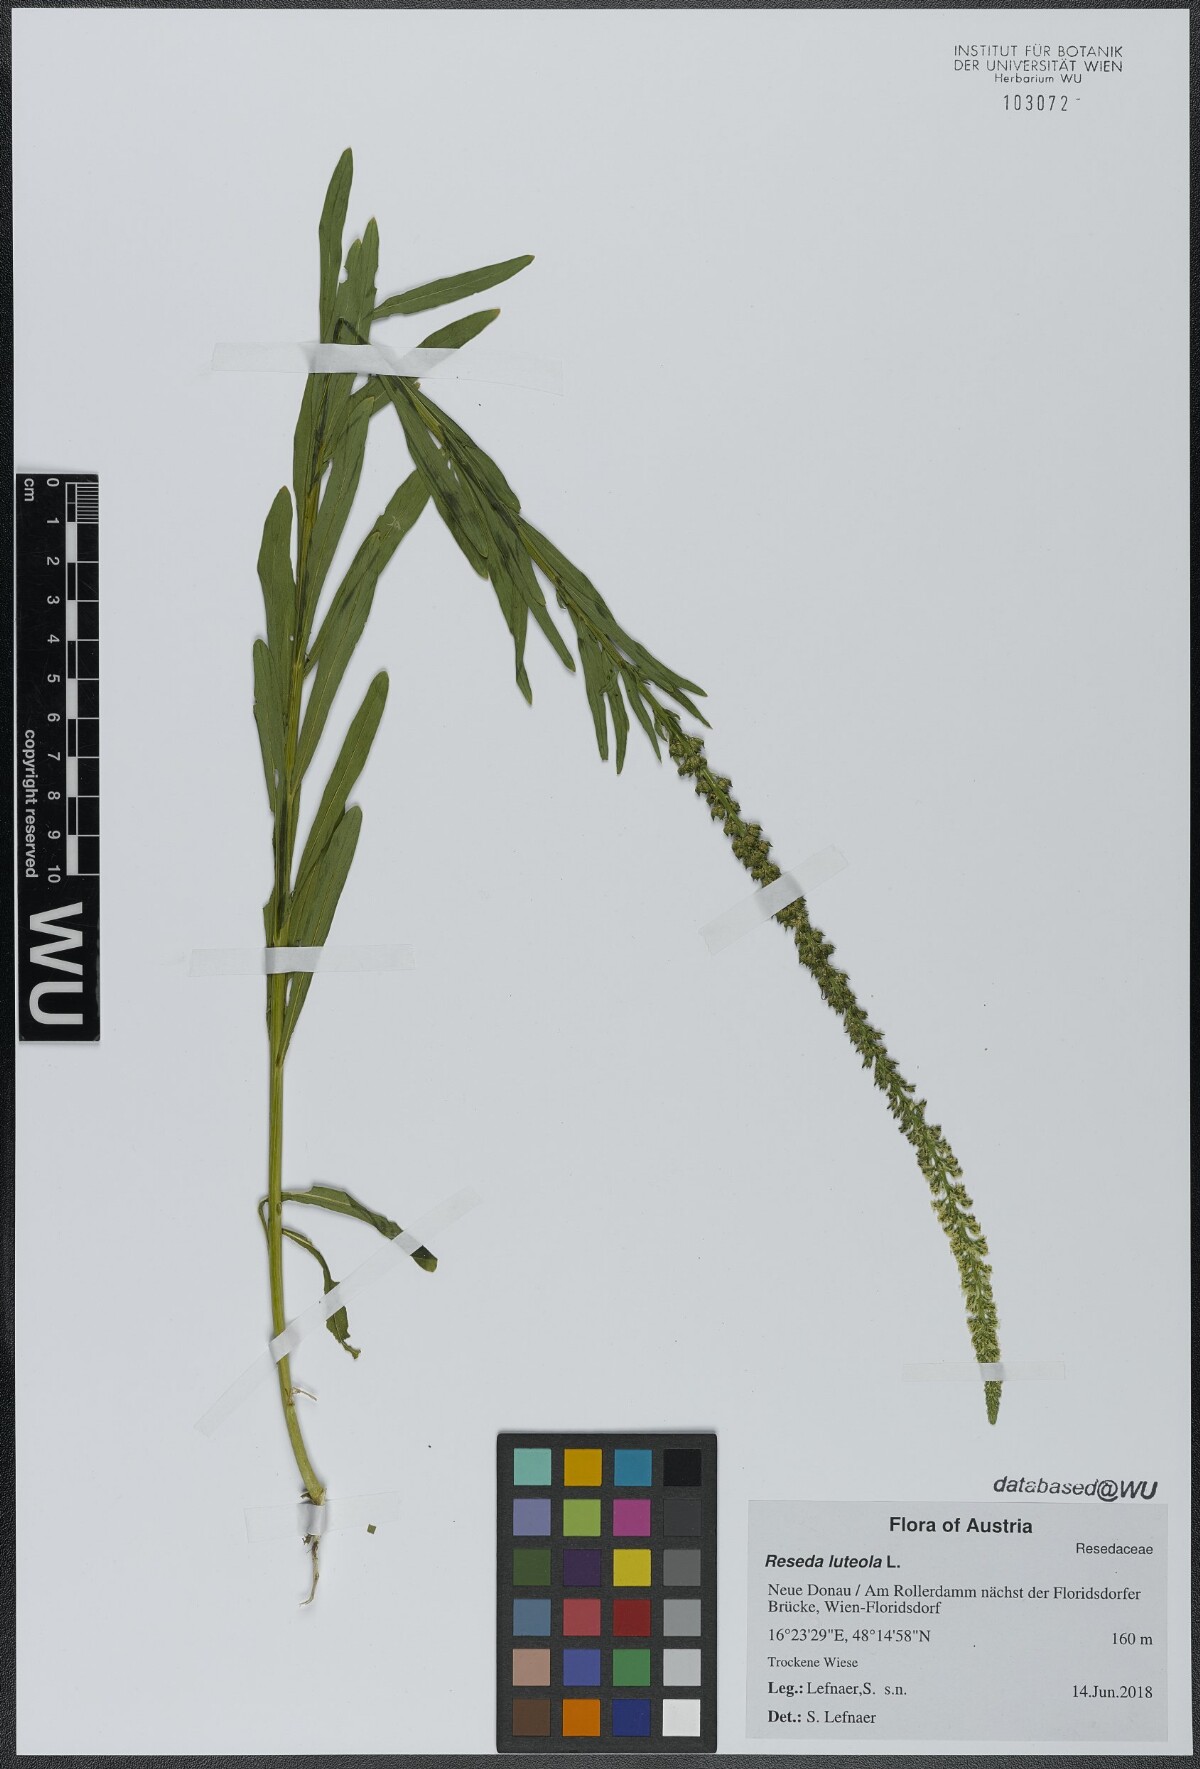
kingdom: Plantae
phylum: Tracheophyta
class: Magnoliopsida
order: Brassicales
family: Resedaceae
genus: Reseda
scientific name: Reseda luteola
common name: Weld
